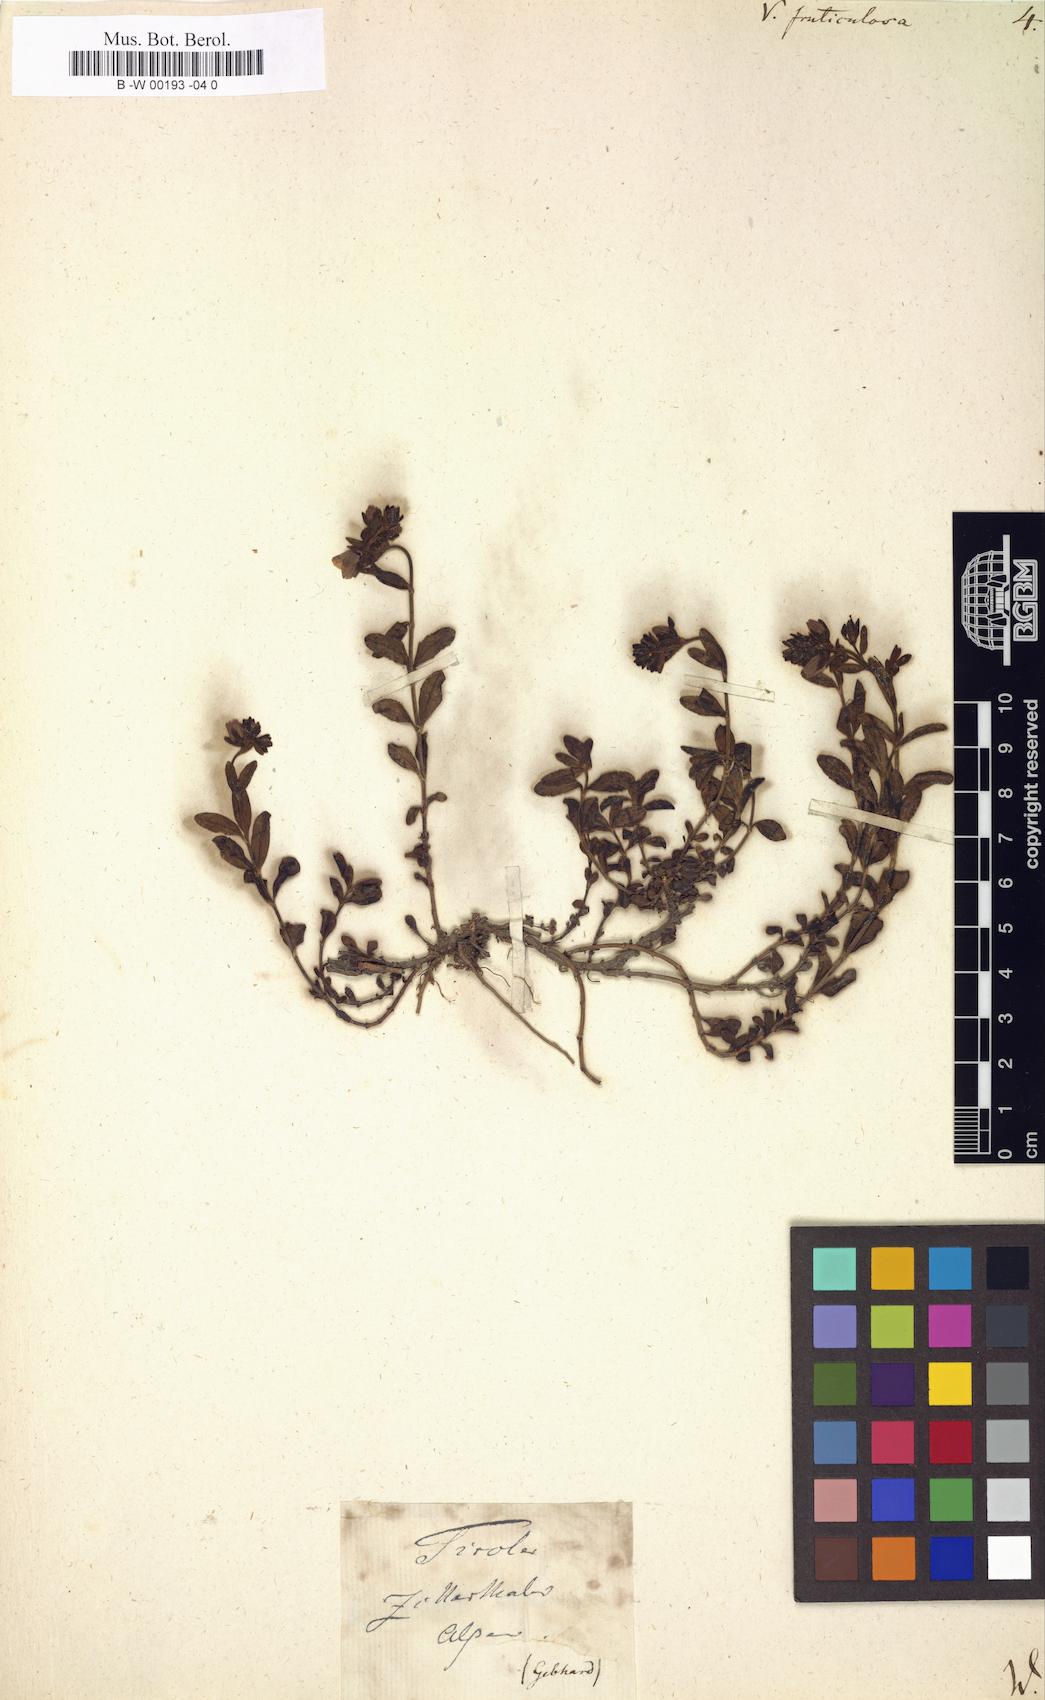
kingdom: Plantae
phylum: Tracheophyta
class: Magnoliopsida
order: Lamiales
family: Plantaginaceae
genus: Veronica
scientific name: Veronica fruticulosa
